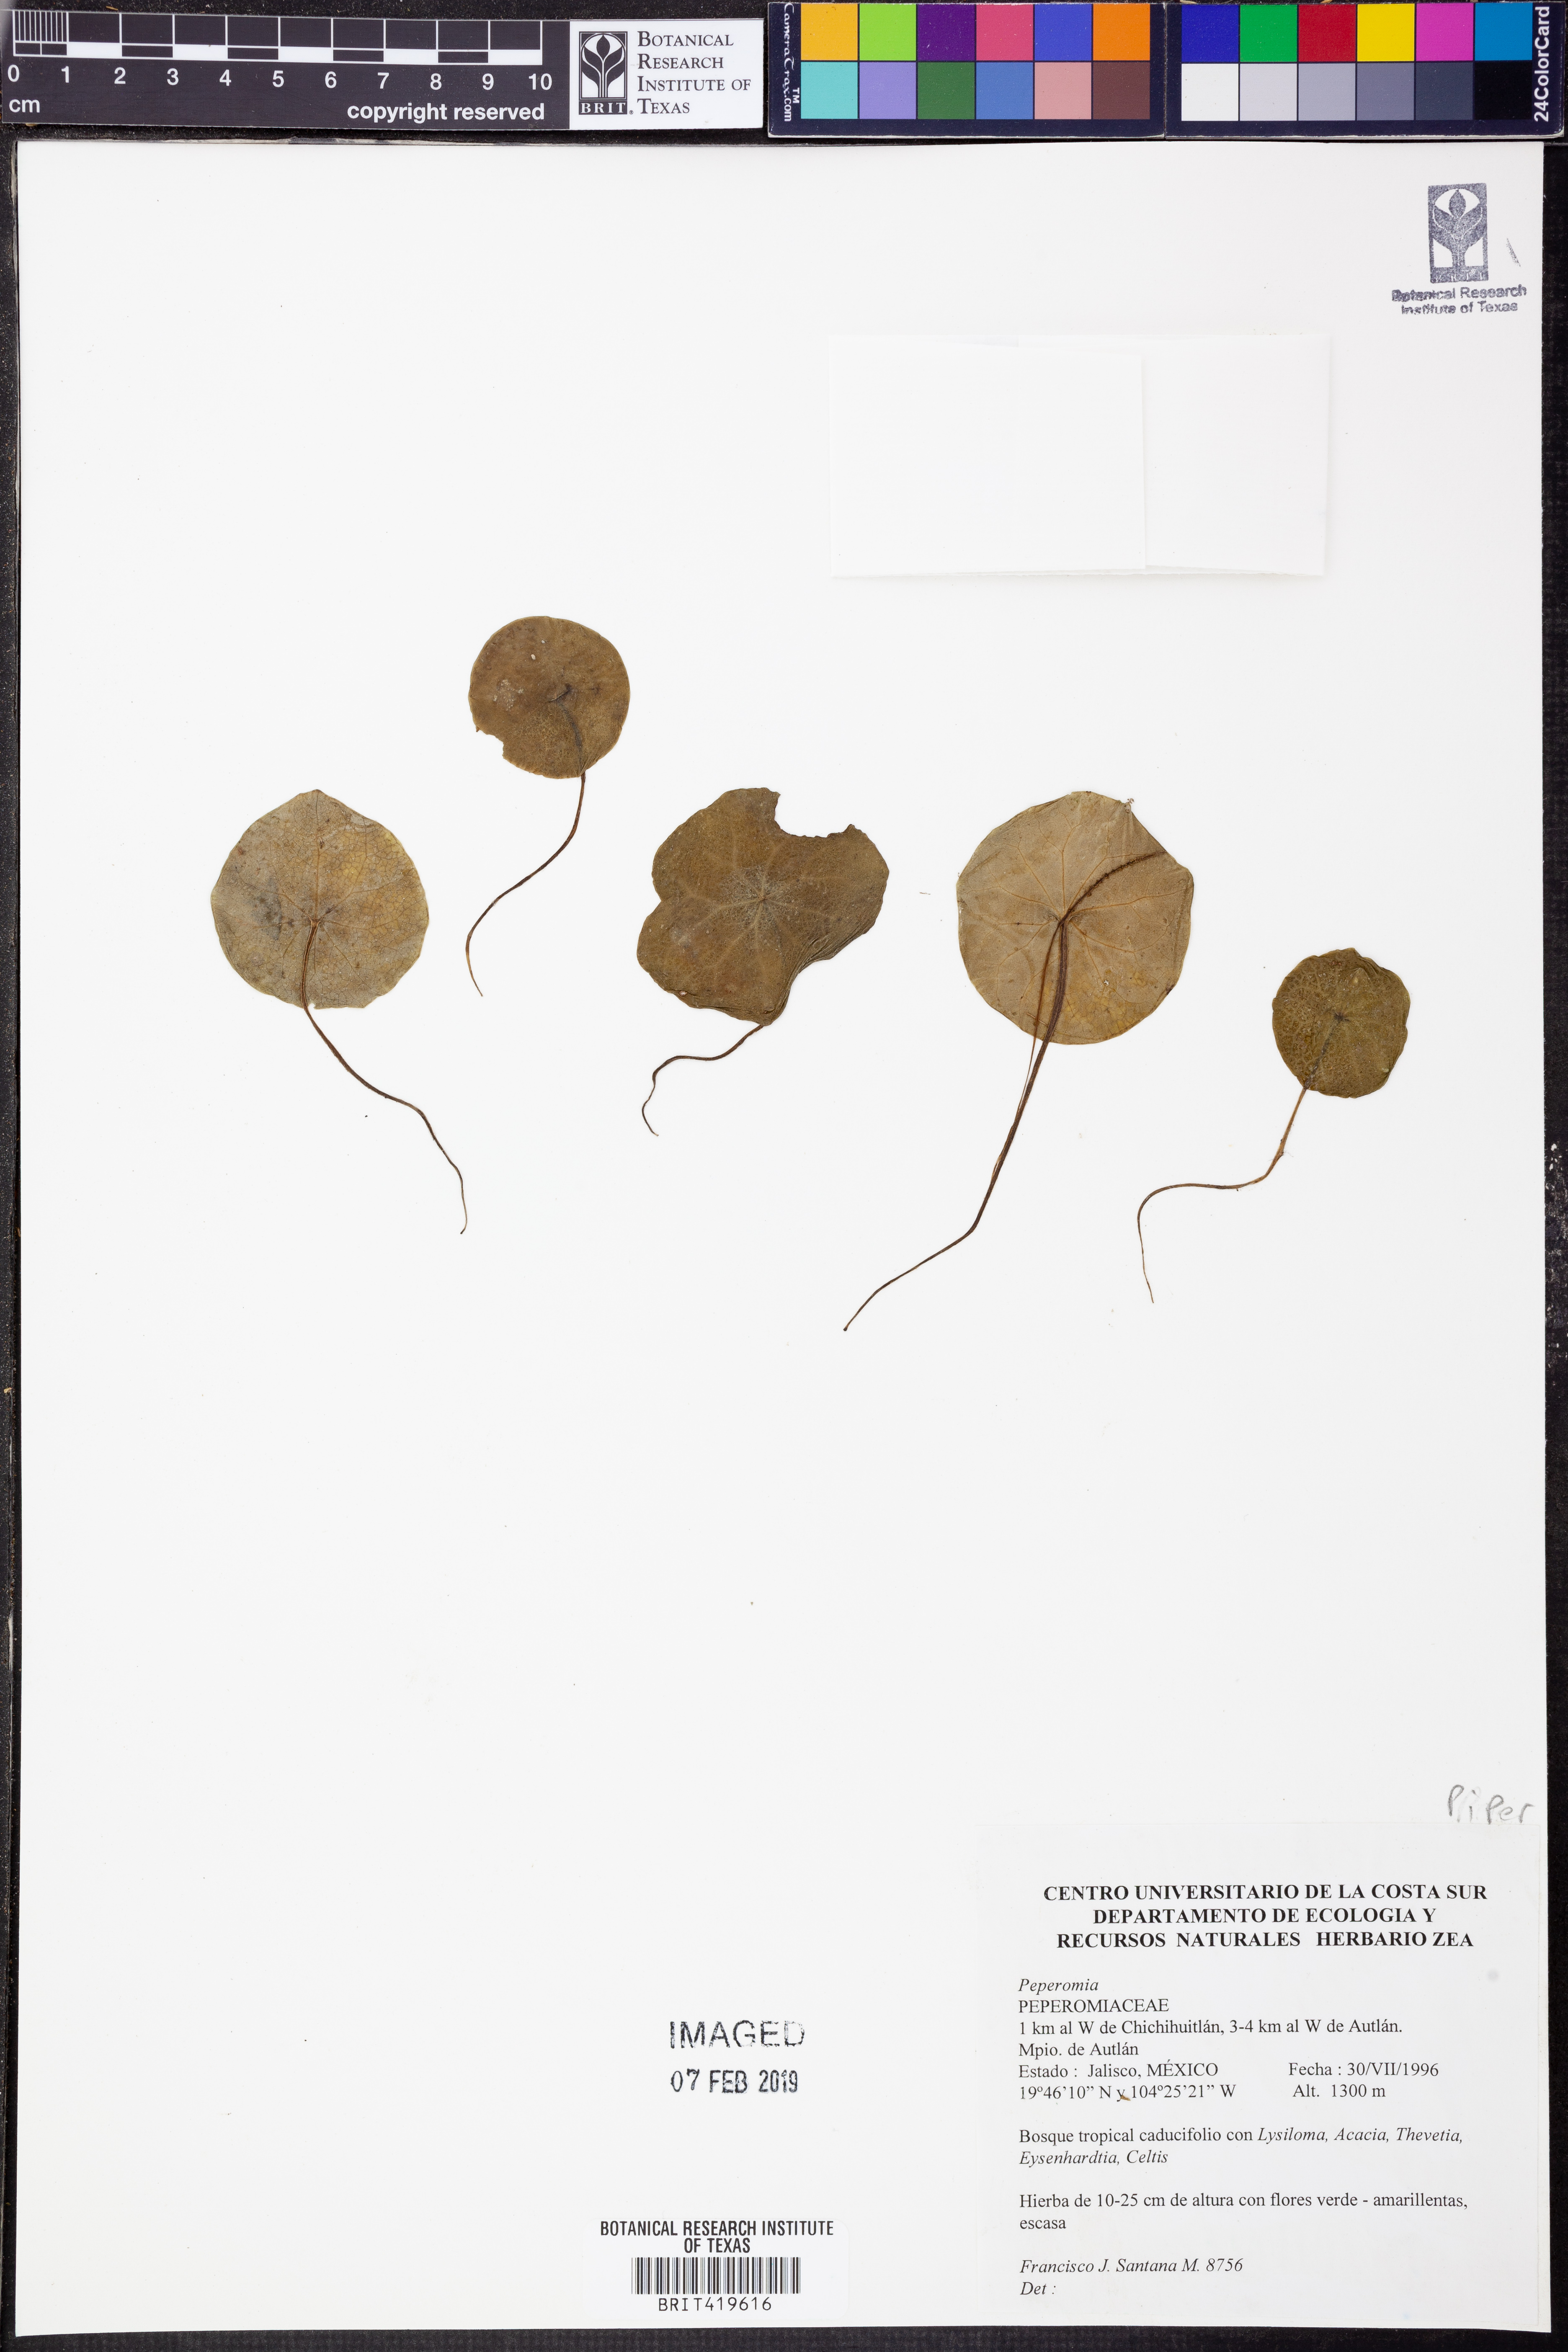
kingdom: Plantae
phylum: Tracheophyta
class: Magnoliopsida
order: Piperales
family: Piperaceae
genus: Peperomia
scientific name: Peperomia
